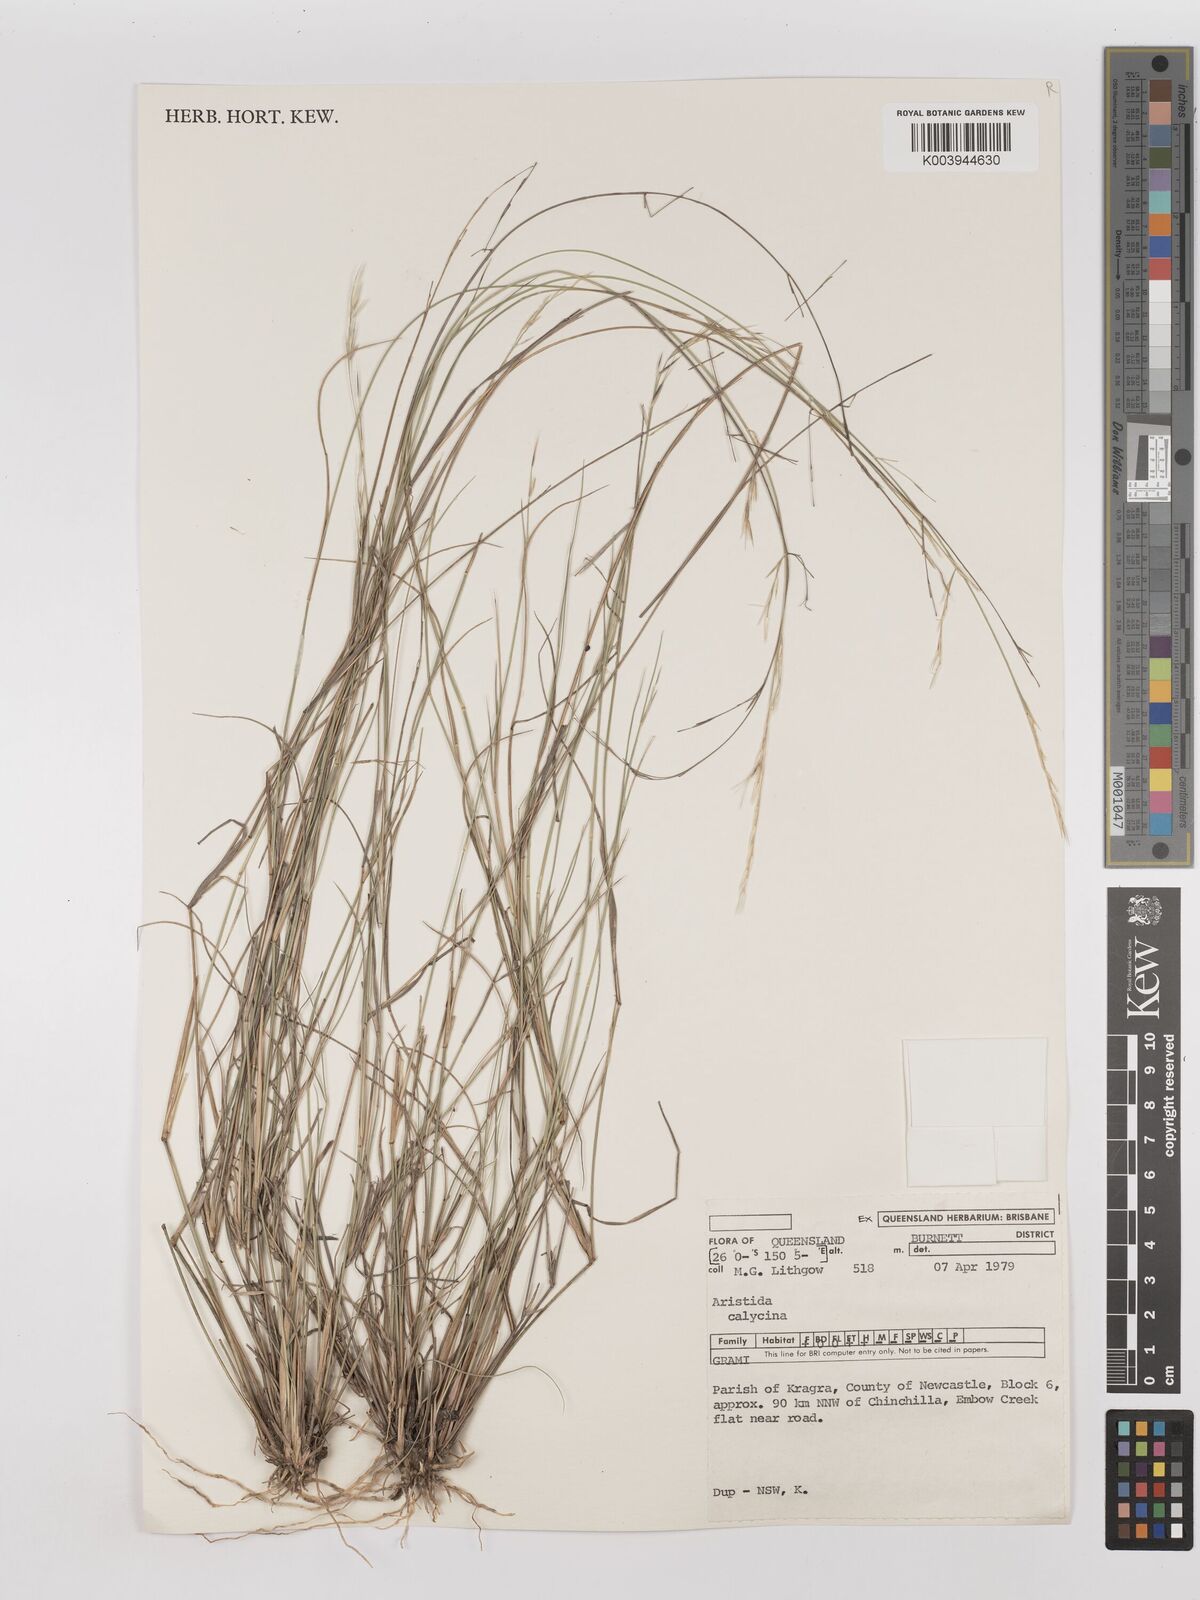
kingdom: Plantae
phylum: Tracheophyta
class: Liliopsida
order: Poales
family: Poaceae
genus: Aristida
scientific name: Aristida calycina
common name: Dark wire grass
